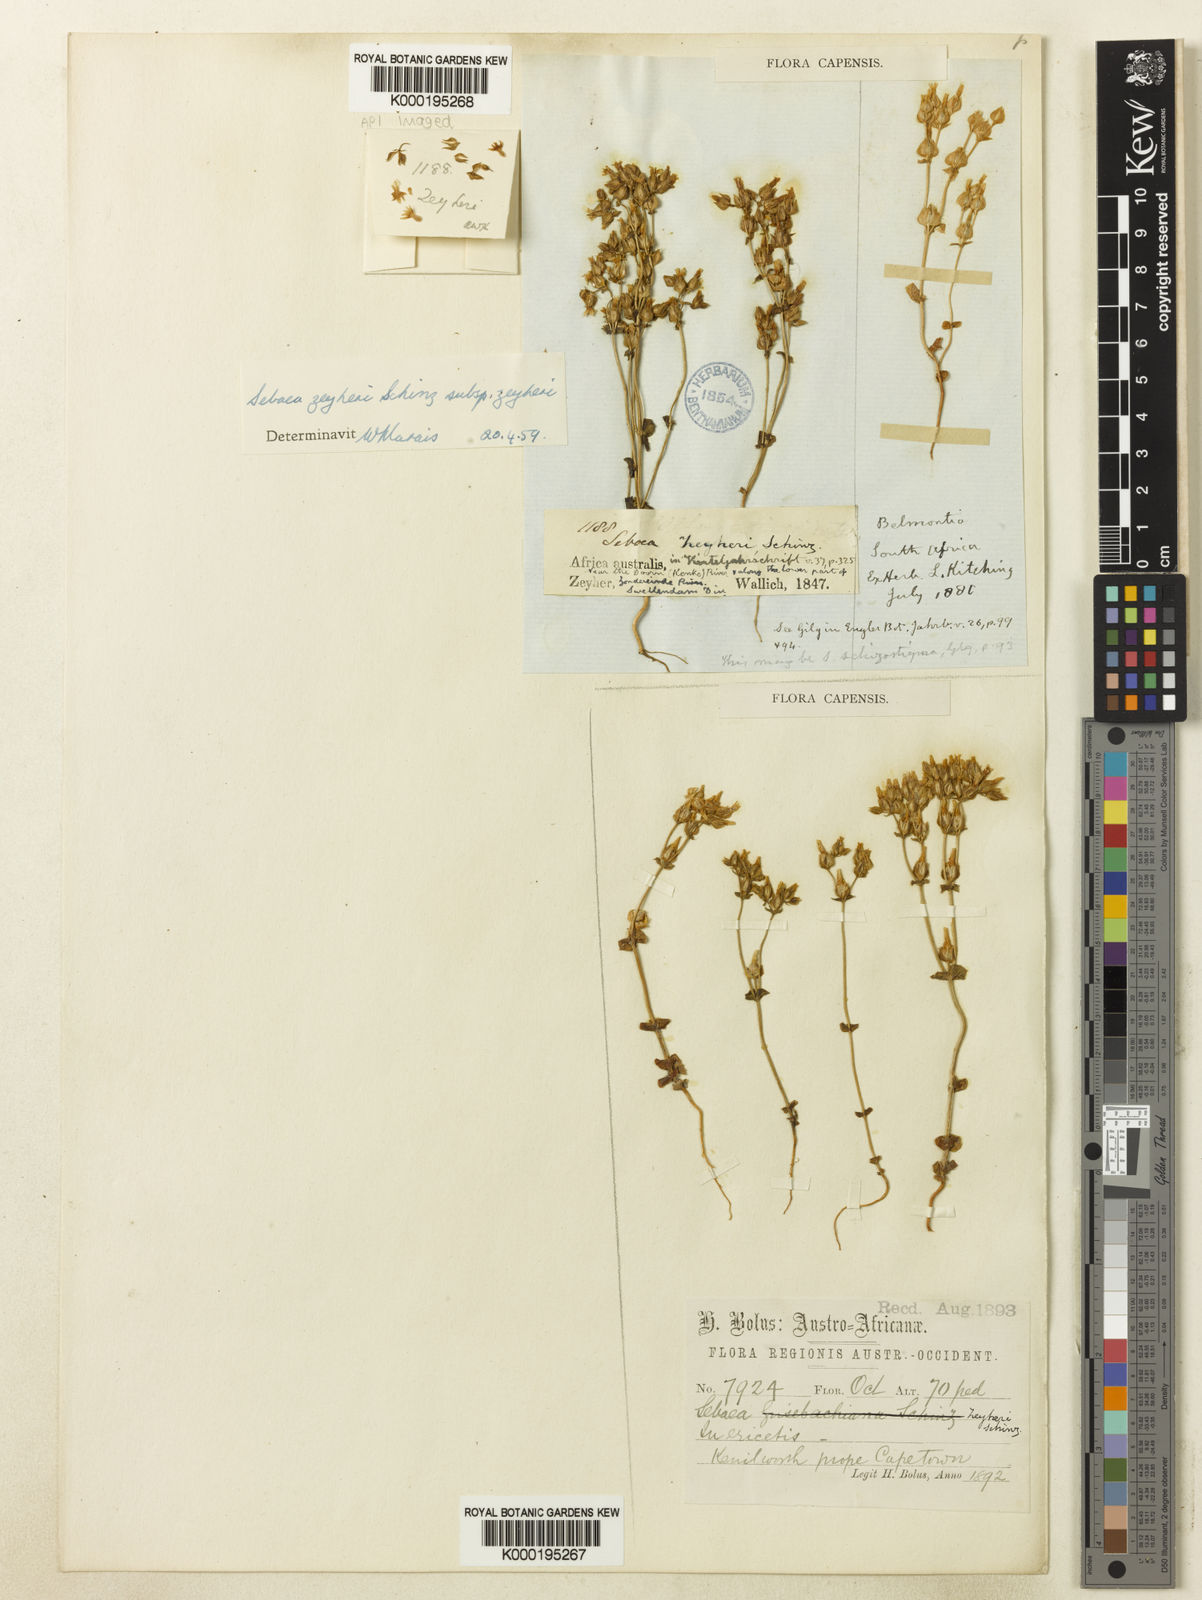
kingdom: Plantae
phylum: Tracheophyta
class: Magnoliopsida
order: Gentianales
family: Gentianaceae
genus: Sebaea
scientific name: Sebaea scabra
